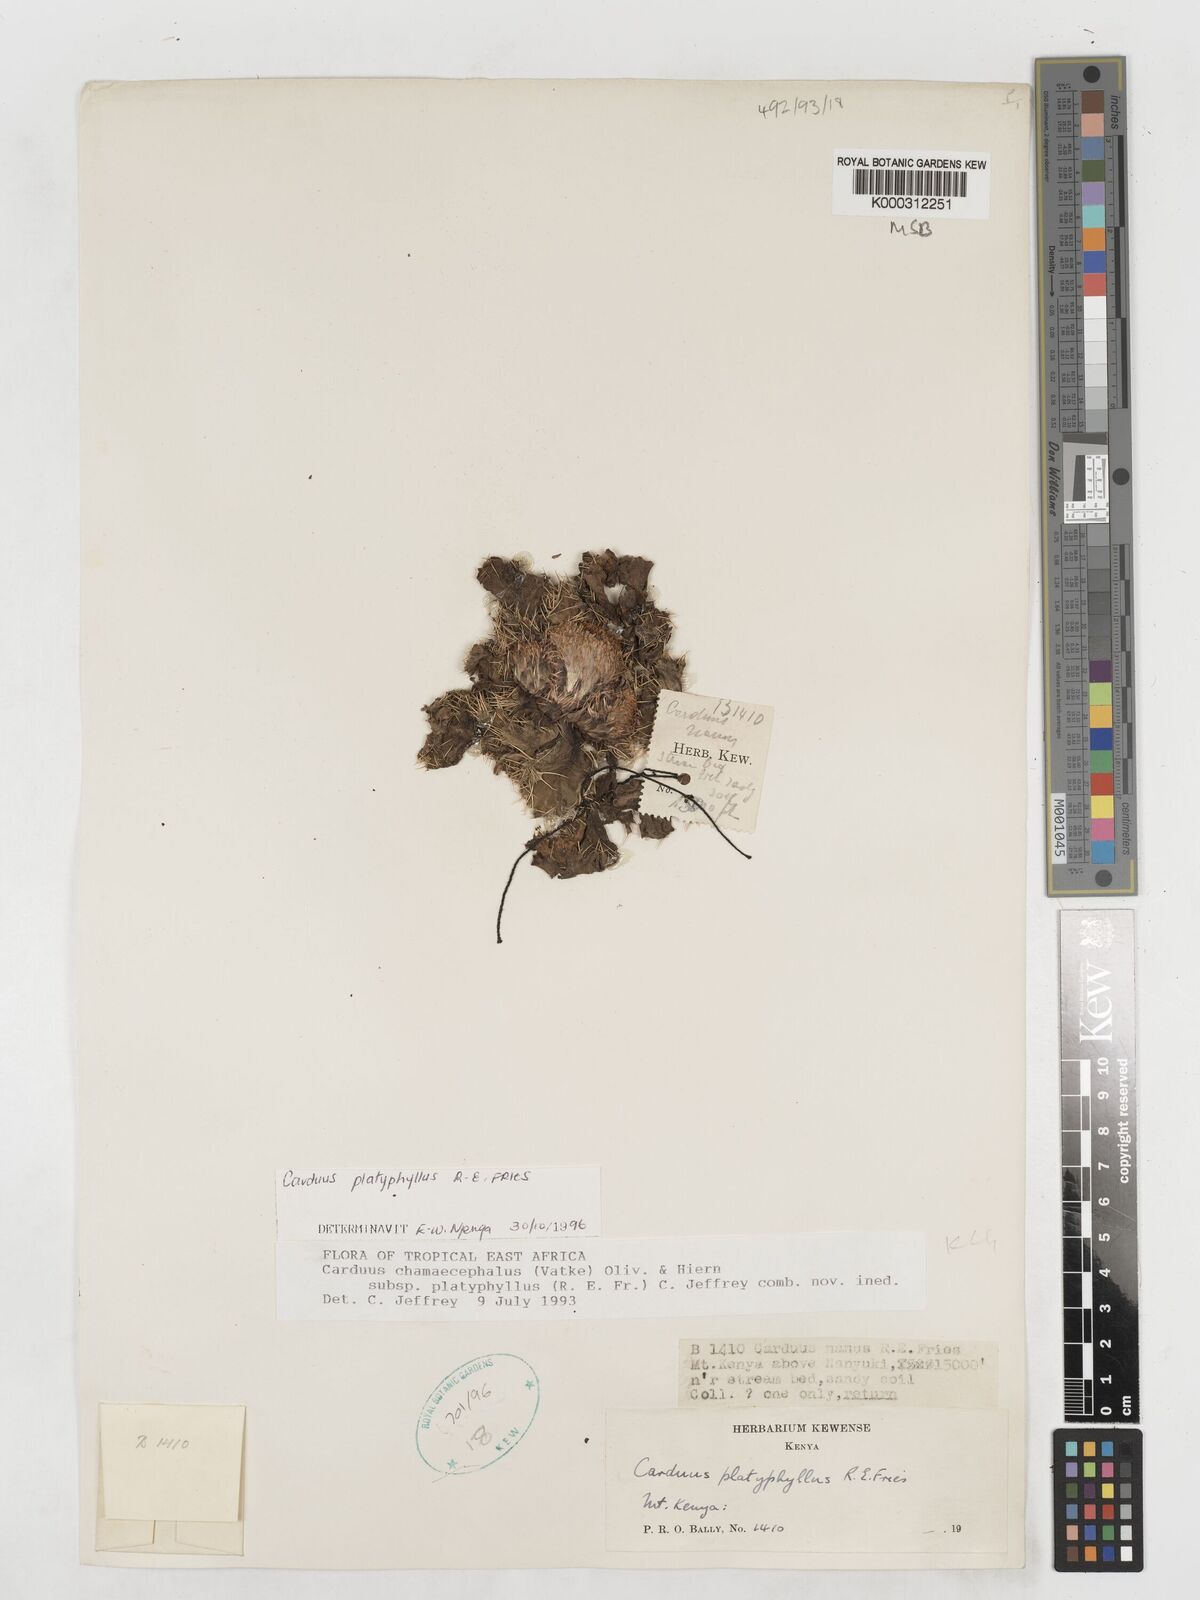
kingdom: Plantae
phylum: Tracheophyta
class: Magnoliopsida
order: Asterales
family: Asteraceae
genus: Carduus
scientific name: Carduus schimperi
